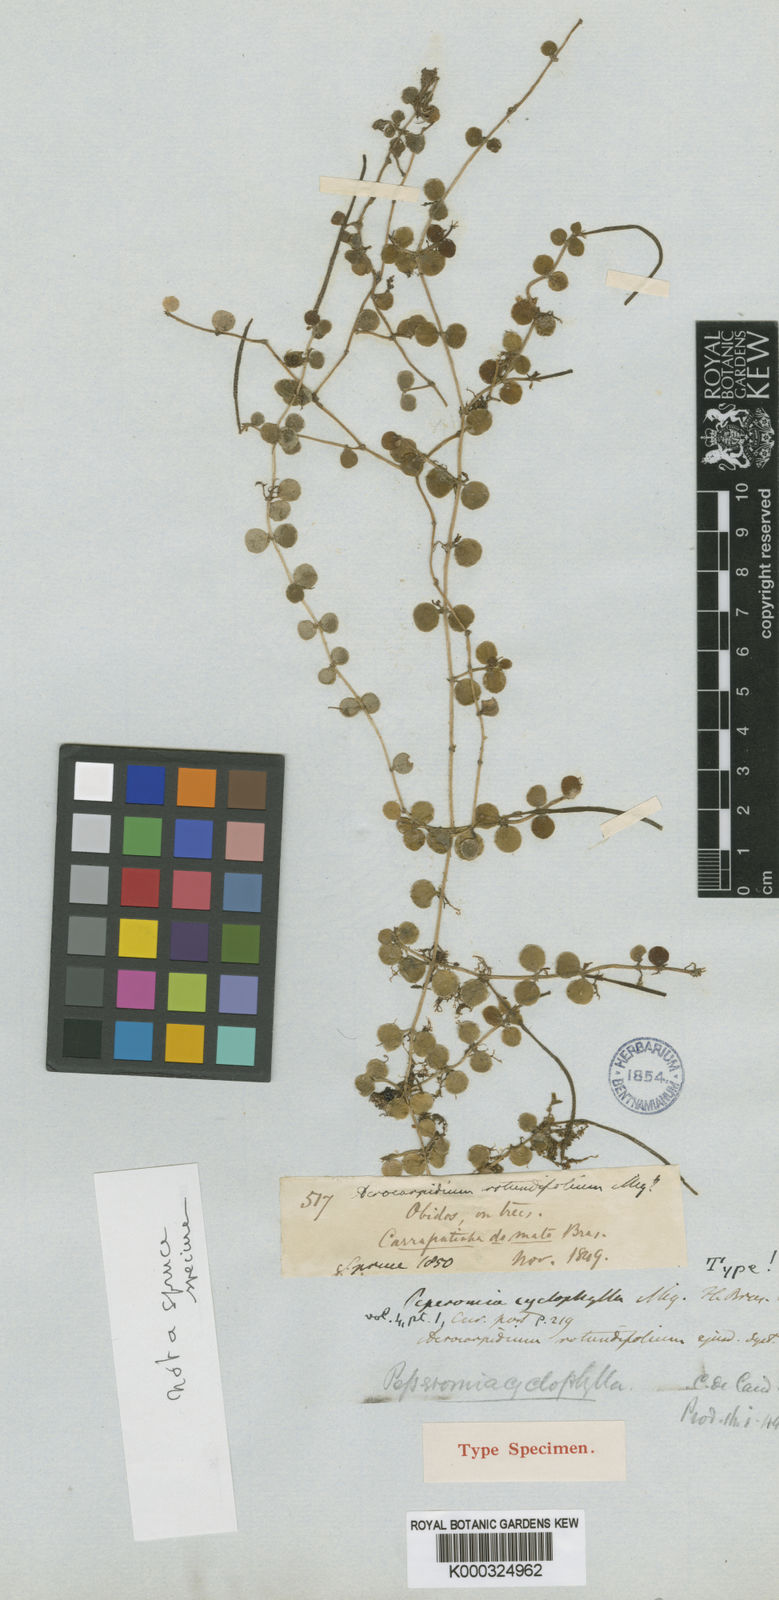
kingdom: Plantae
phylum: Tracheophyta
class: Magnoliopsida
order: Piperales
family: Piperaceae
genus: Peperomia
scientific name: Peperomia cyclophylla
